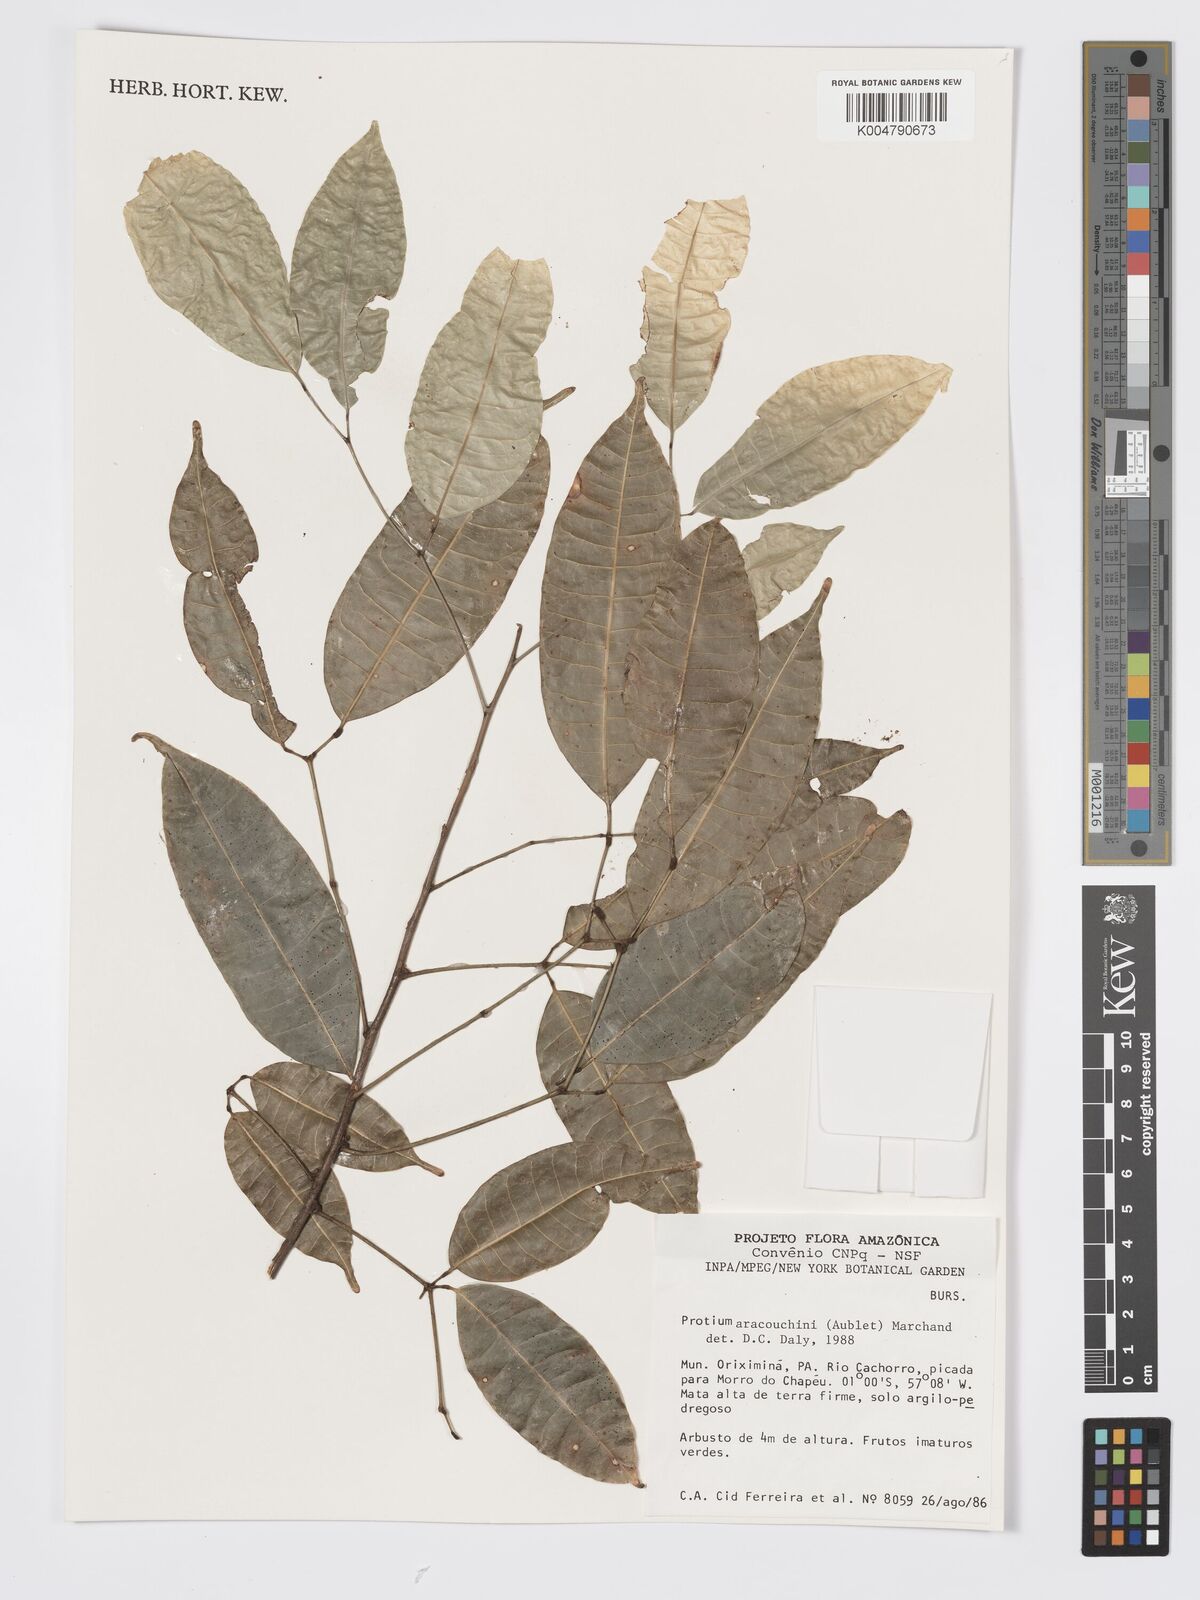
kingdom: Plantae
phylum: Tracheophyta
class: Magnoliopsida
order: Sapindales
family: Burseraceae
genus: Protium
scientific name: Protium aracouchini
